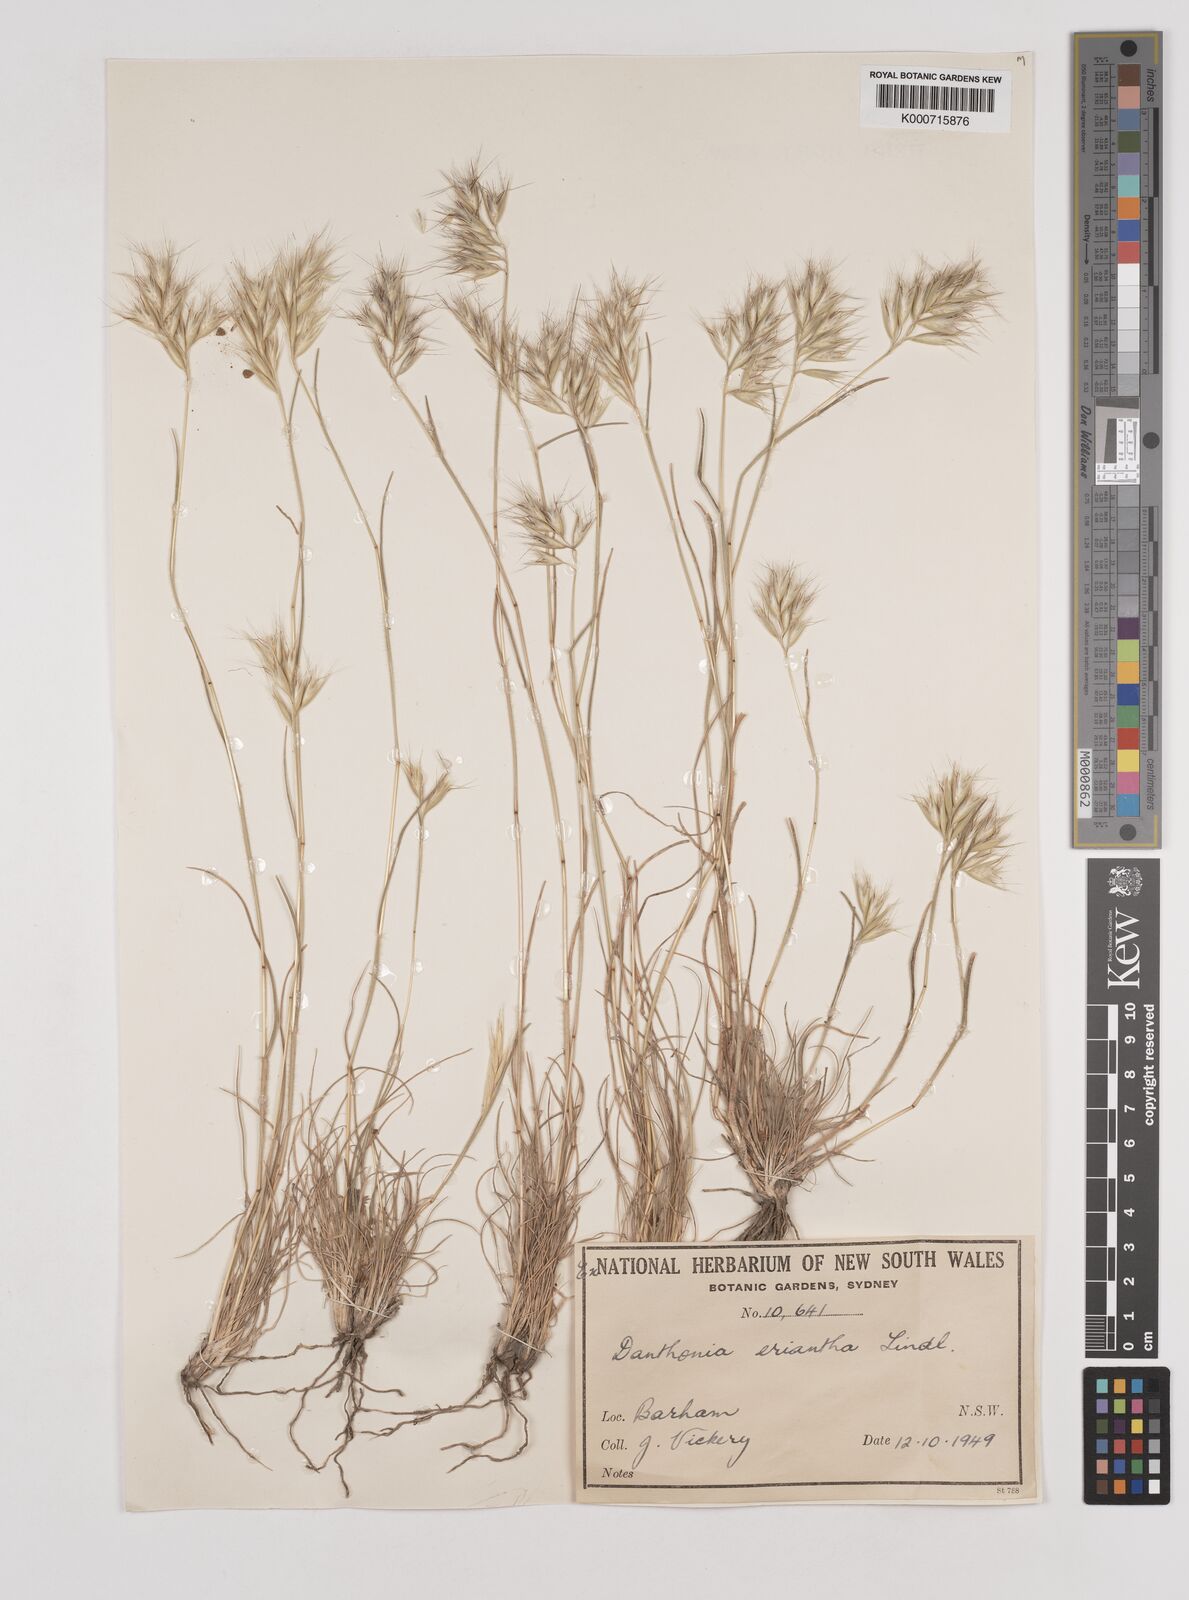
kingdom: Plantae
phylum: Tracheophyta
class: Liliopsida
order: Poales
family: Poaceae
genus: Rytidosperma
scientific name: Rytidosperma erianthum
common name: Hill wallaby grass
